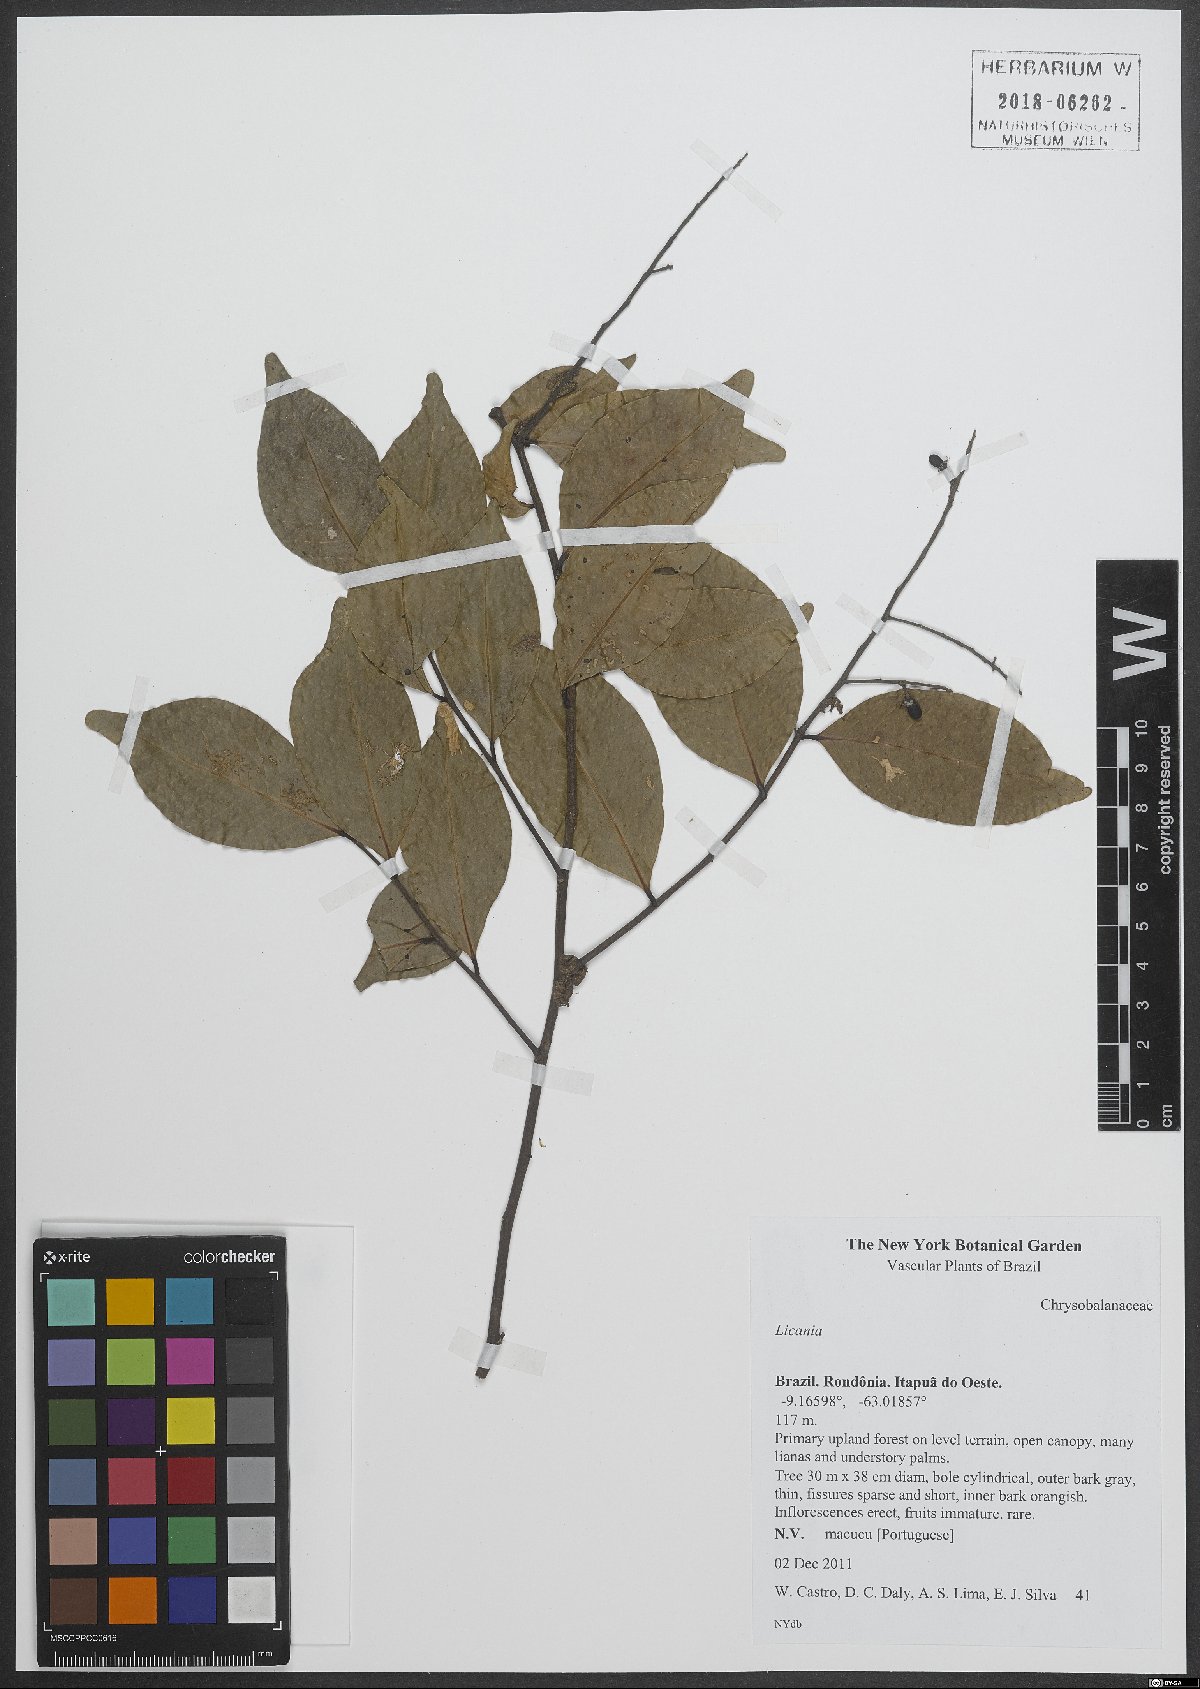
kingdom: Plantae
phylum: Tracheophyta
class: Magnoliopsida
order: Malpighiales
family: Chrysobalanaceae
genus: Licania
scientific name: Licania
